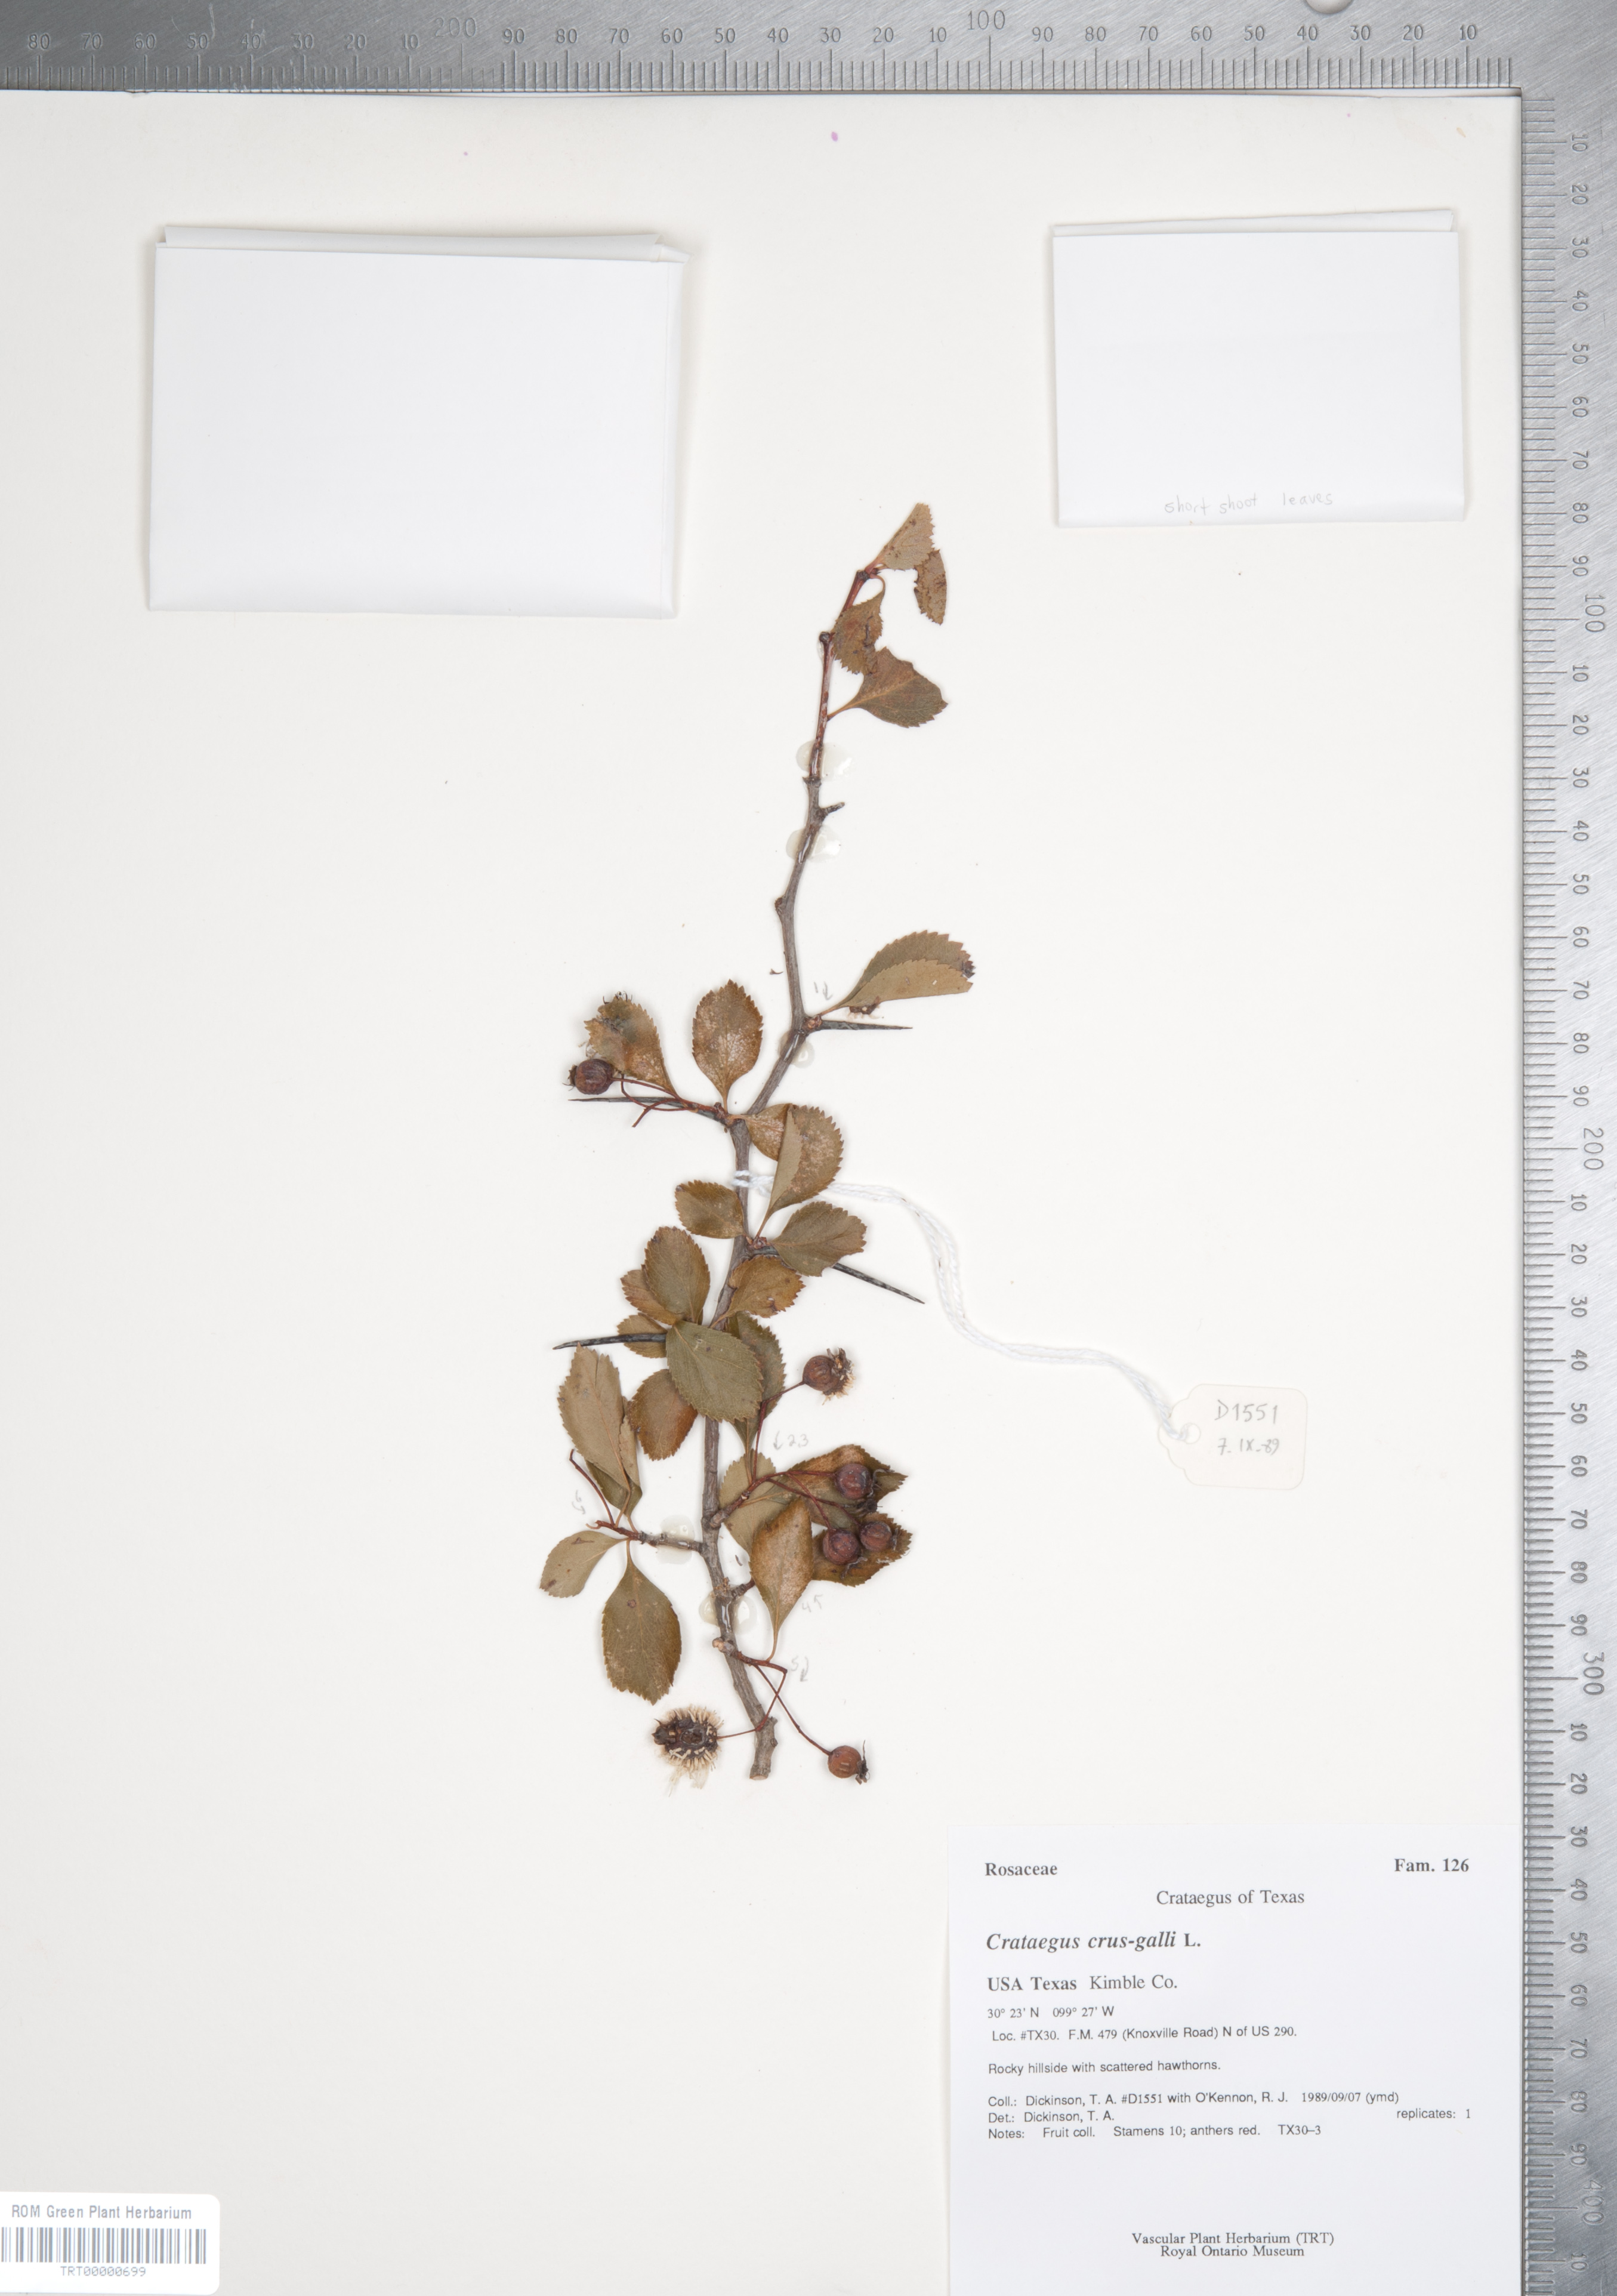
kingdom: Plantae
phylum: Tracheophyta
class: Magnoliopsida
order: Rosales
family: Rosaceae
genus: Crataegus
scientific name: Crataegus crus-galli
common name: Cockspurthorn
